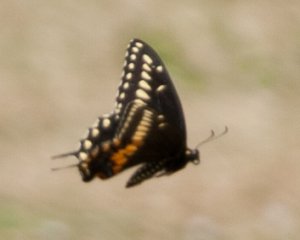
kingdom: Animalia
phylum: Arthropoda
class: Insecta
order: Lepidoptera
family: Papilionidae
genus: Papilio
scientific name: Papilio polyxenes
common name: Black Swallowtail
